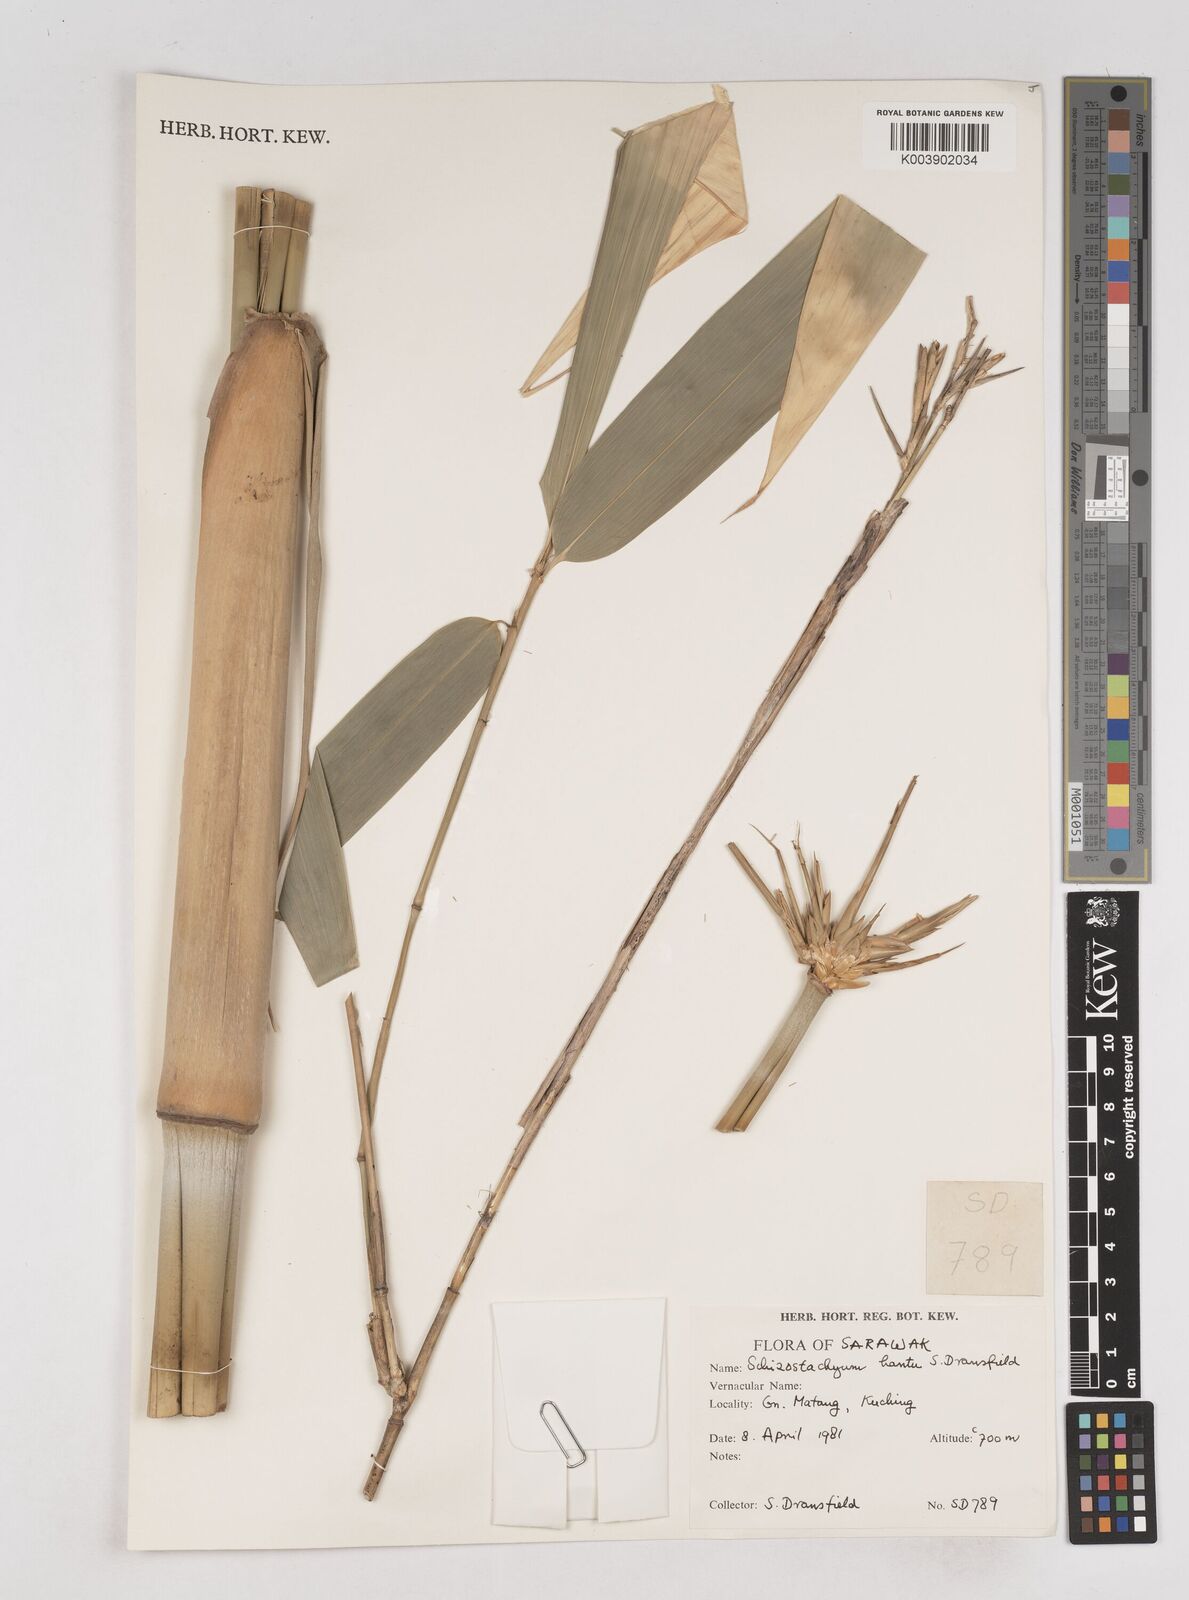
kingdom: Plantae
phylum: Tracheophyta
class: Liliopsida
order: Poales
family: Poaceae
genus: Schizostachyum
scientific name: Schizostachyum hantu
